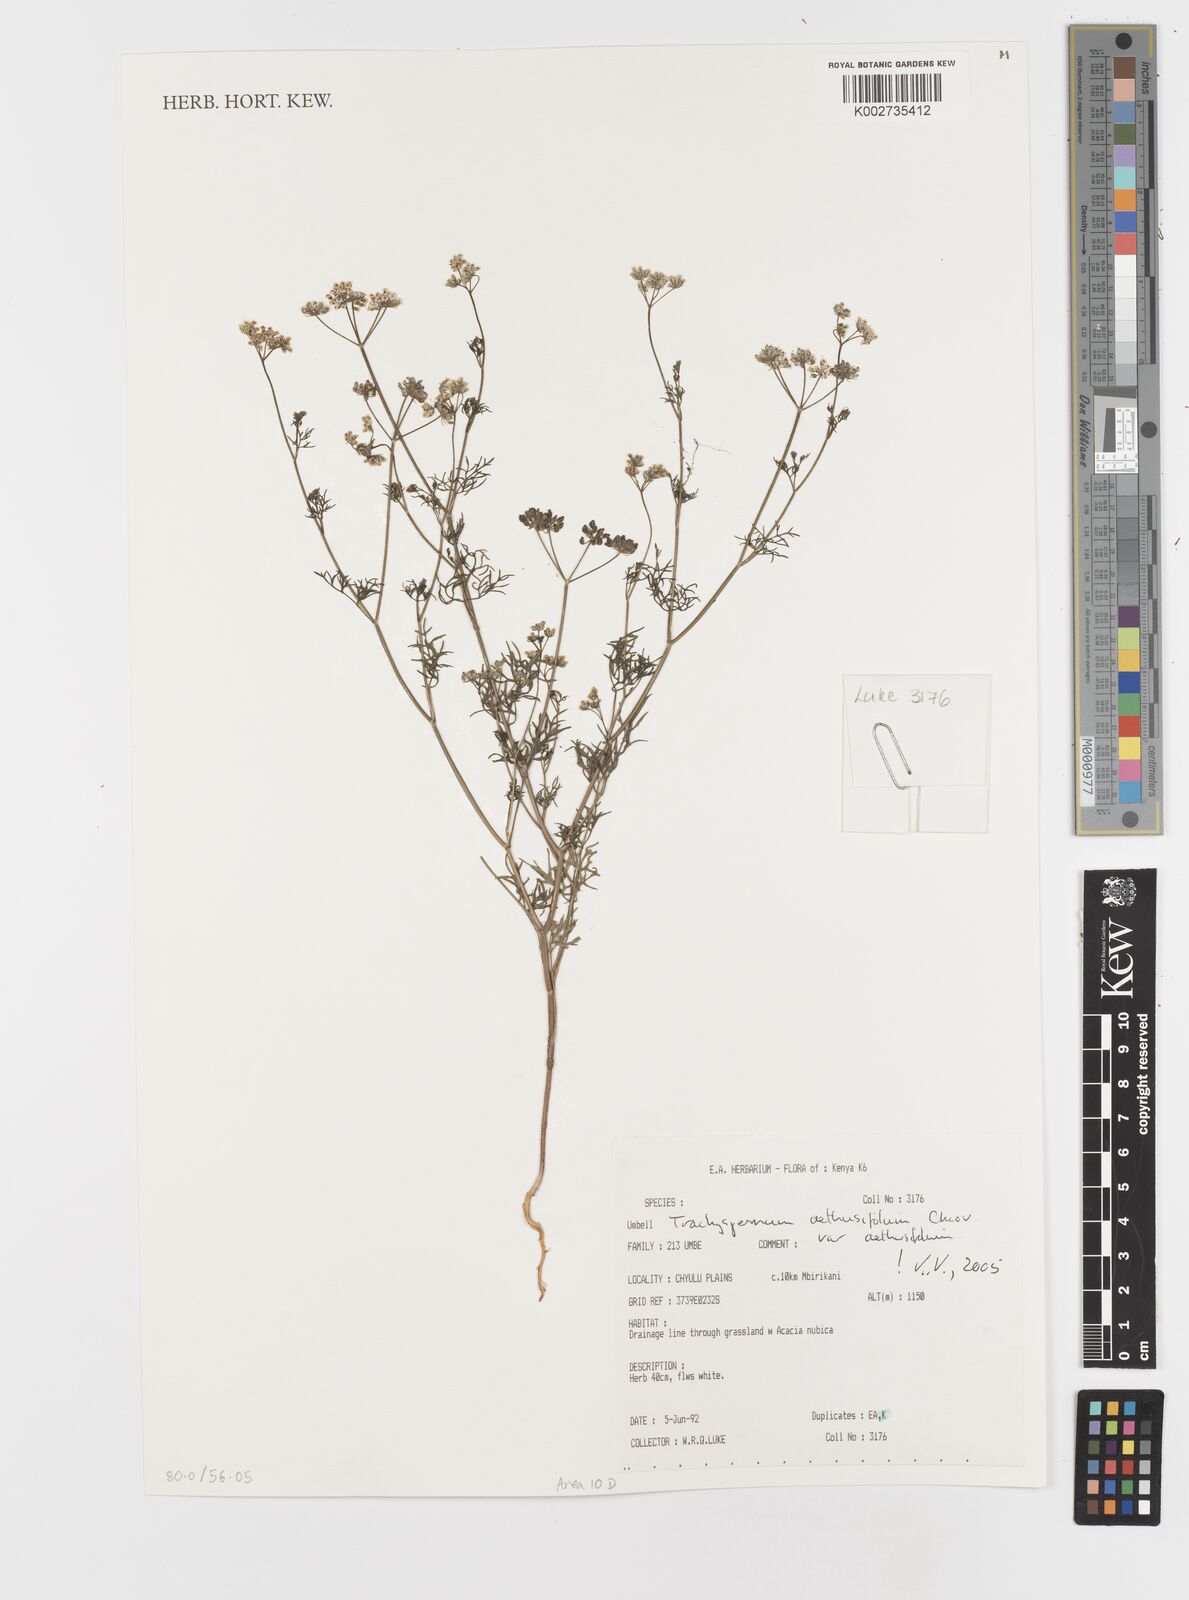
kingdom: Plantae
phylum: Tracheophyta
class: Magnoliopsida
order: Apiales
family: Apiaceae
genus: Trachyspermum
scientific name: Trachyspermum pimpinelloides
